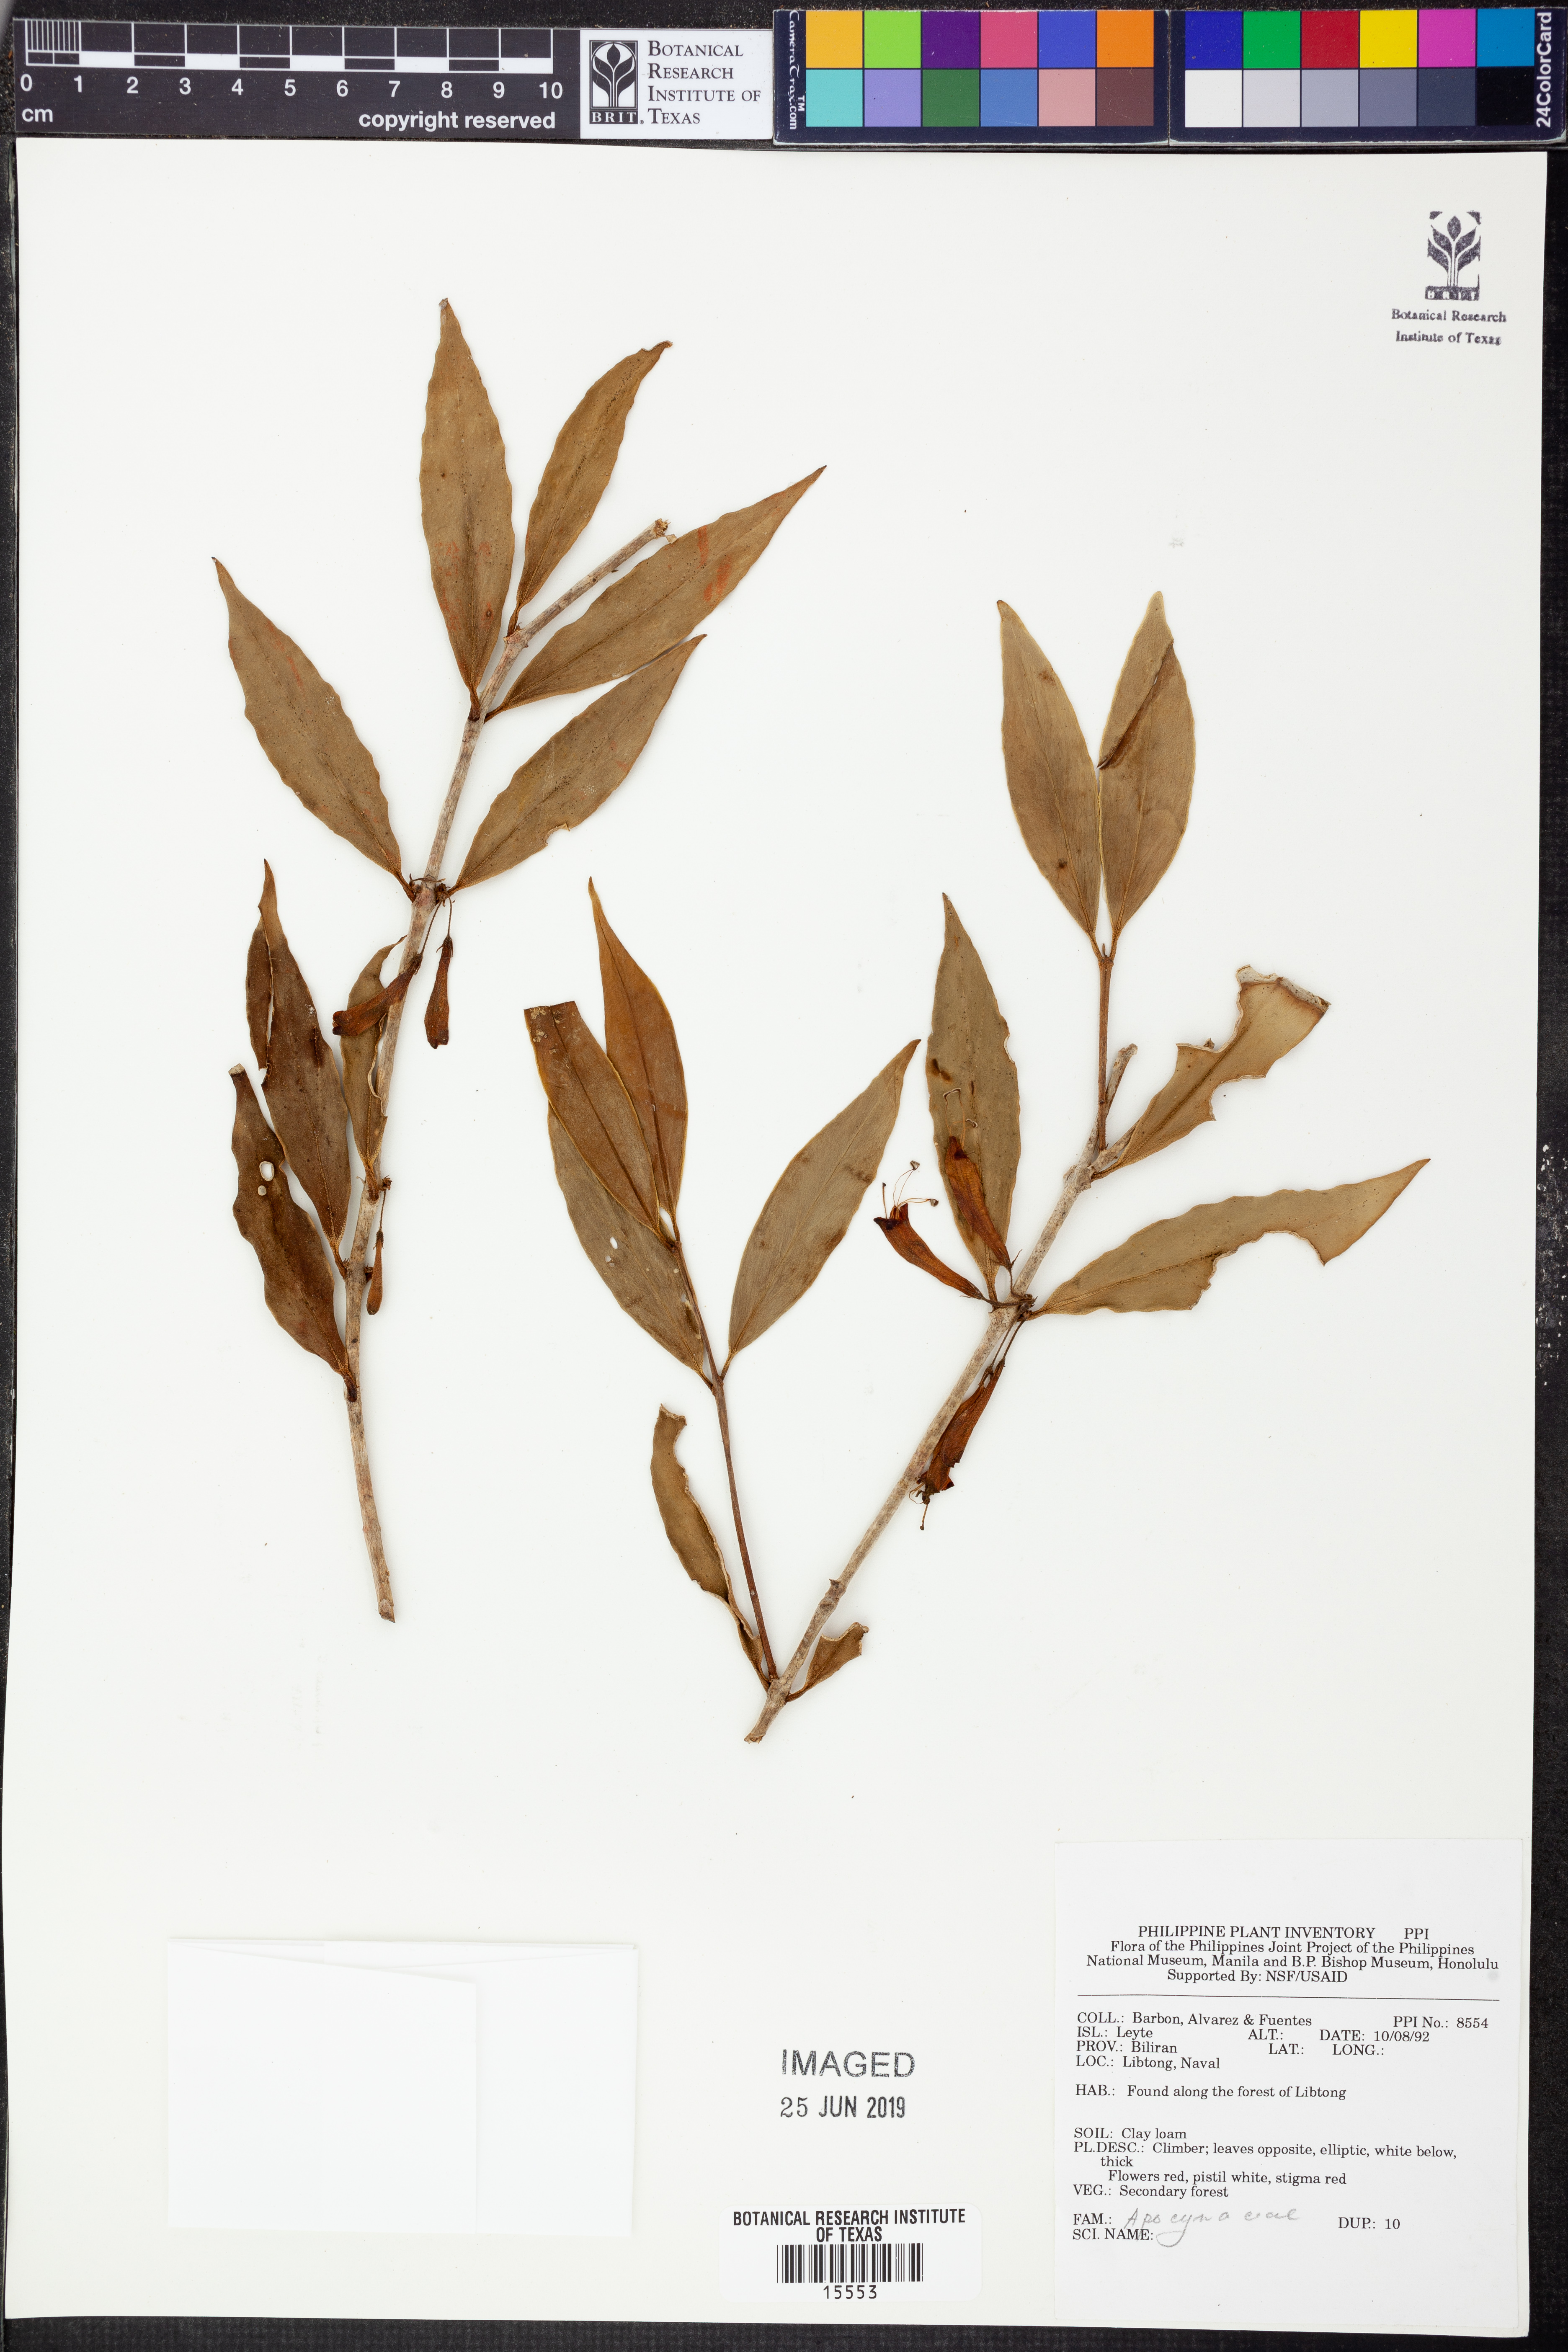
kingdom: Plantae
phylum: Tracheophyta
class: Magnoliopsida
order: Gentianales
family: Apocynaceae
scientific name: Apocynaceae
